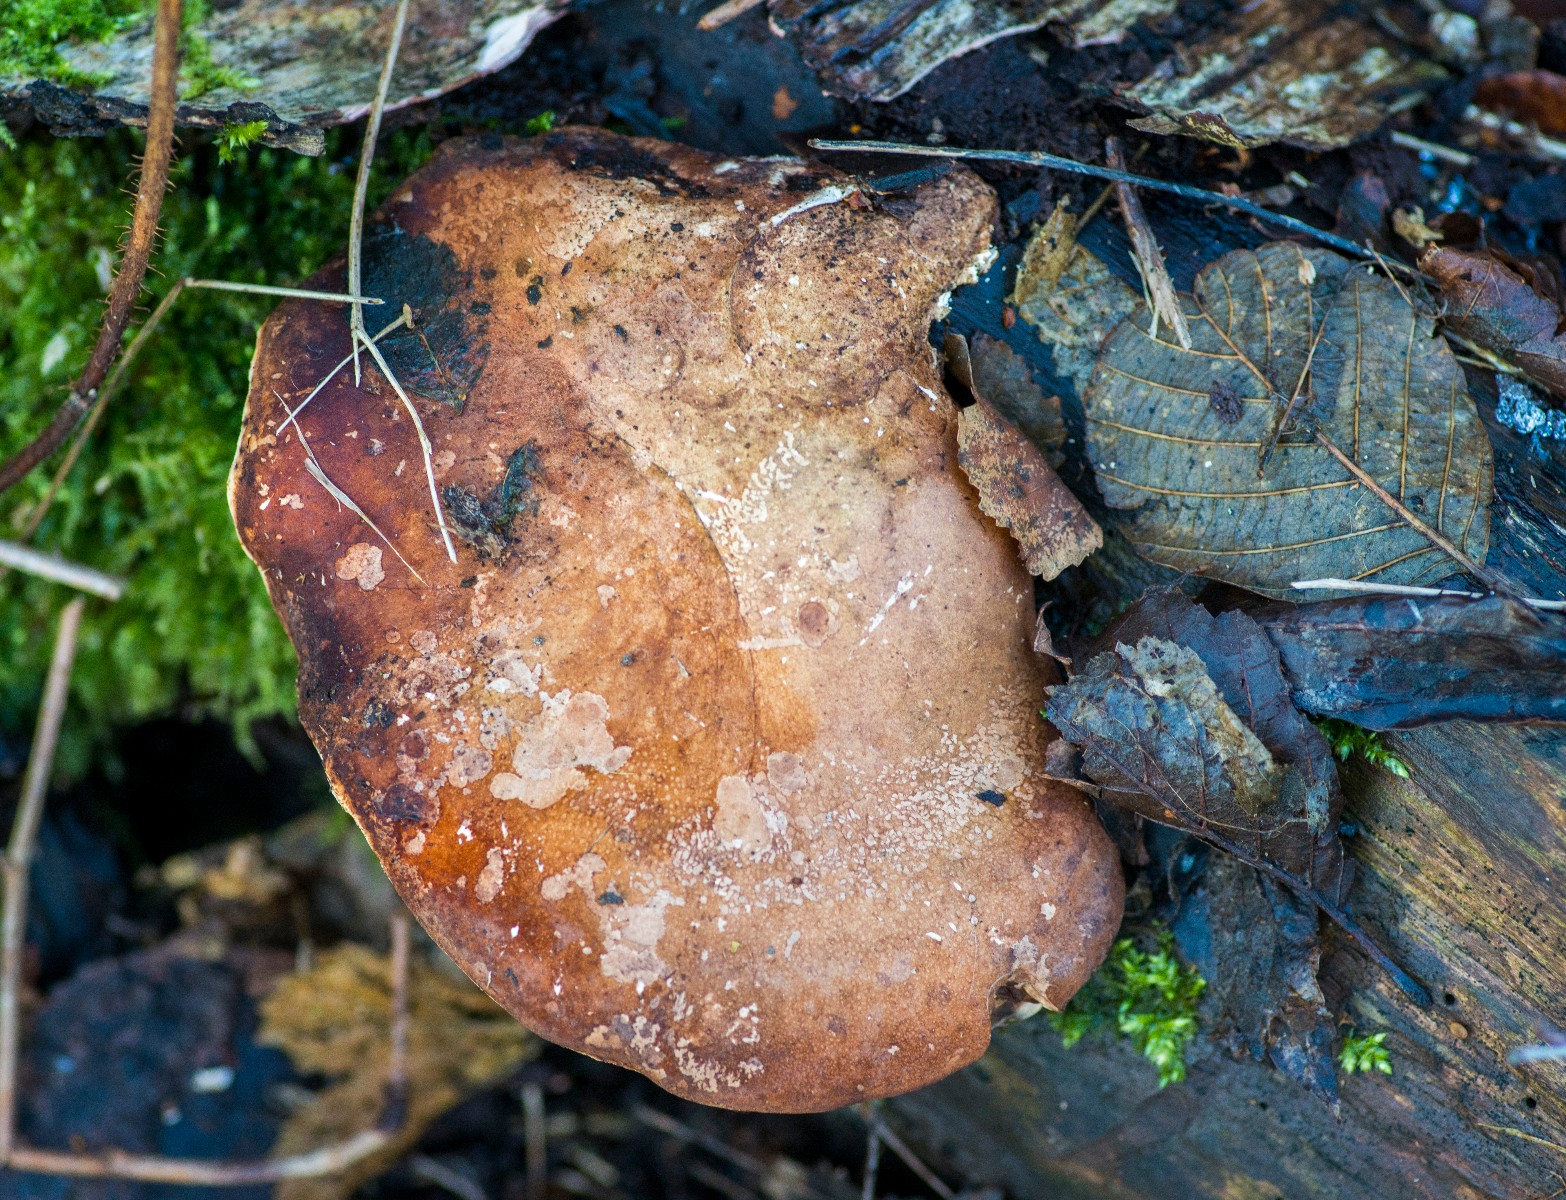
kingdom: Fungi
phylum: Basidiomycota
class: Agaricomycetes
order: Polyporales
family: Fomitopsidaceae
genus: Fomitopsis
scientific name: Fomitopsis betulina
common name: birkeporesvamp
